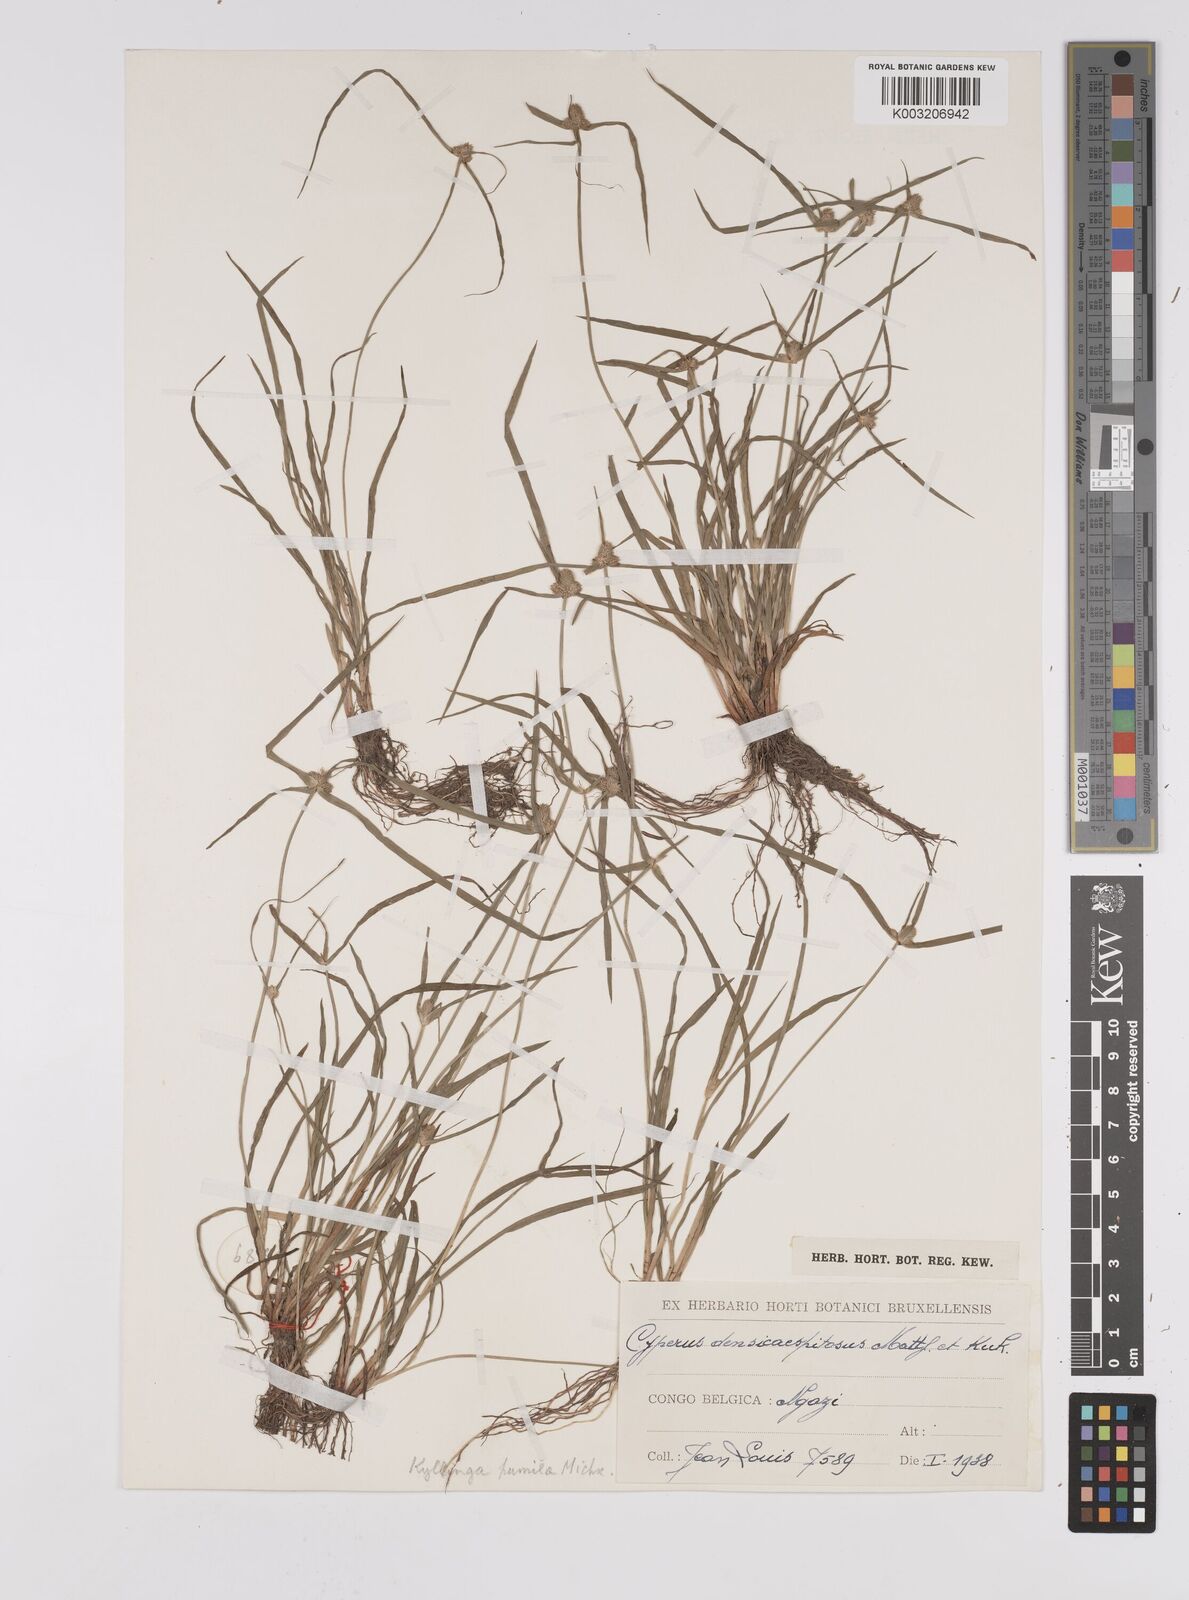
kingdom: Plantae
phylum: Tracheophyta
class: Liliopsida
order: Poales
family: Cyperaceae
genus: Cyperus
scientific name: Cyperus hortensis
